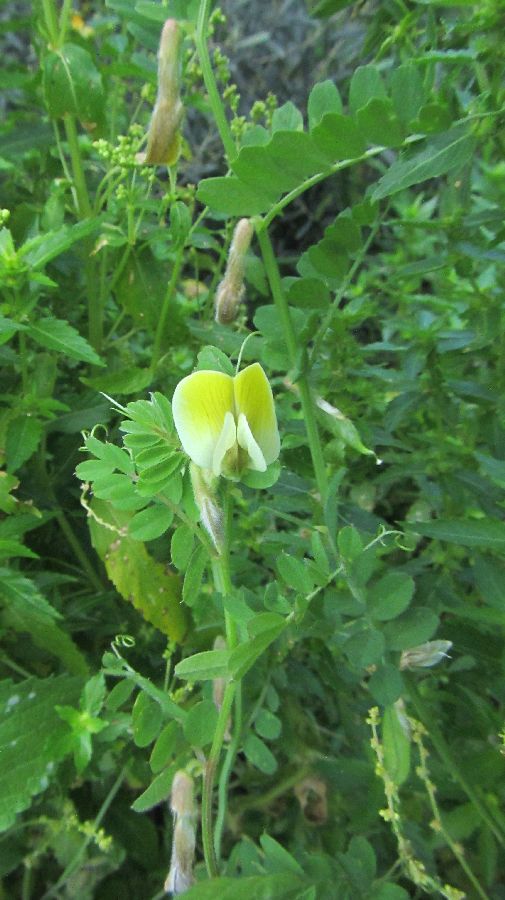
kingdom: Plantae
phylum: Tracheophyta
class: Magnoliopsida
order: Fabales
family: Fabaceae
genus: Vicia
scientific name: Vicia hybrida
